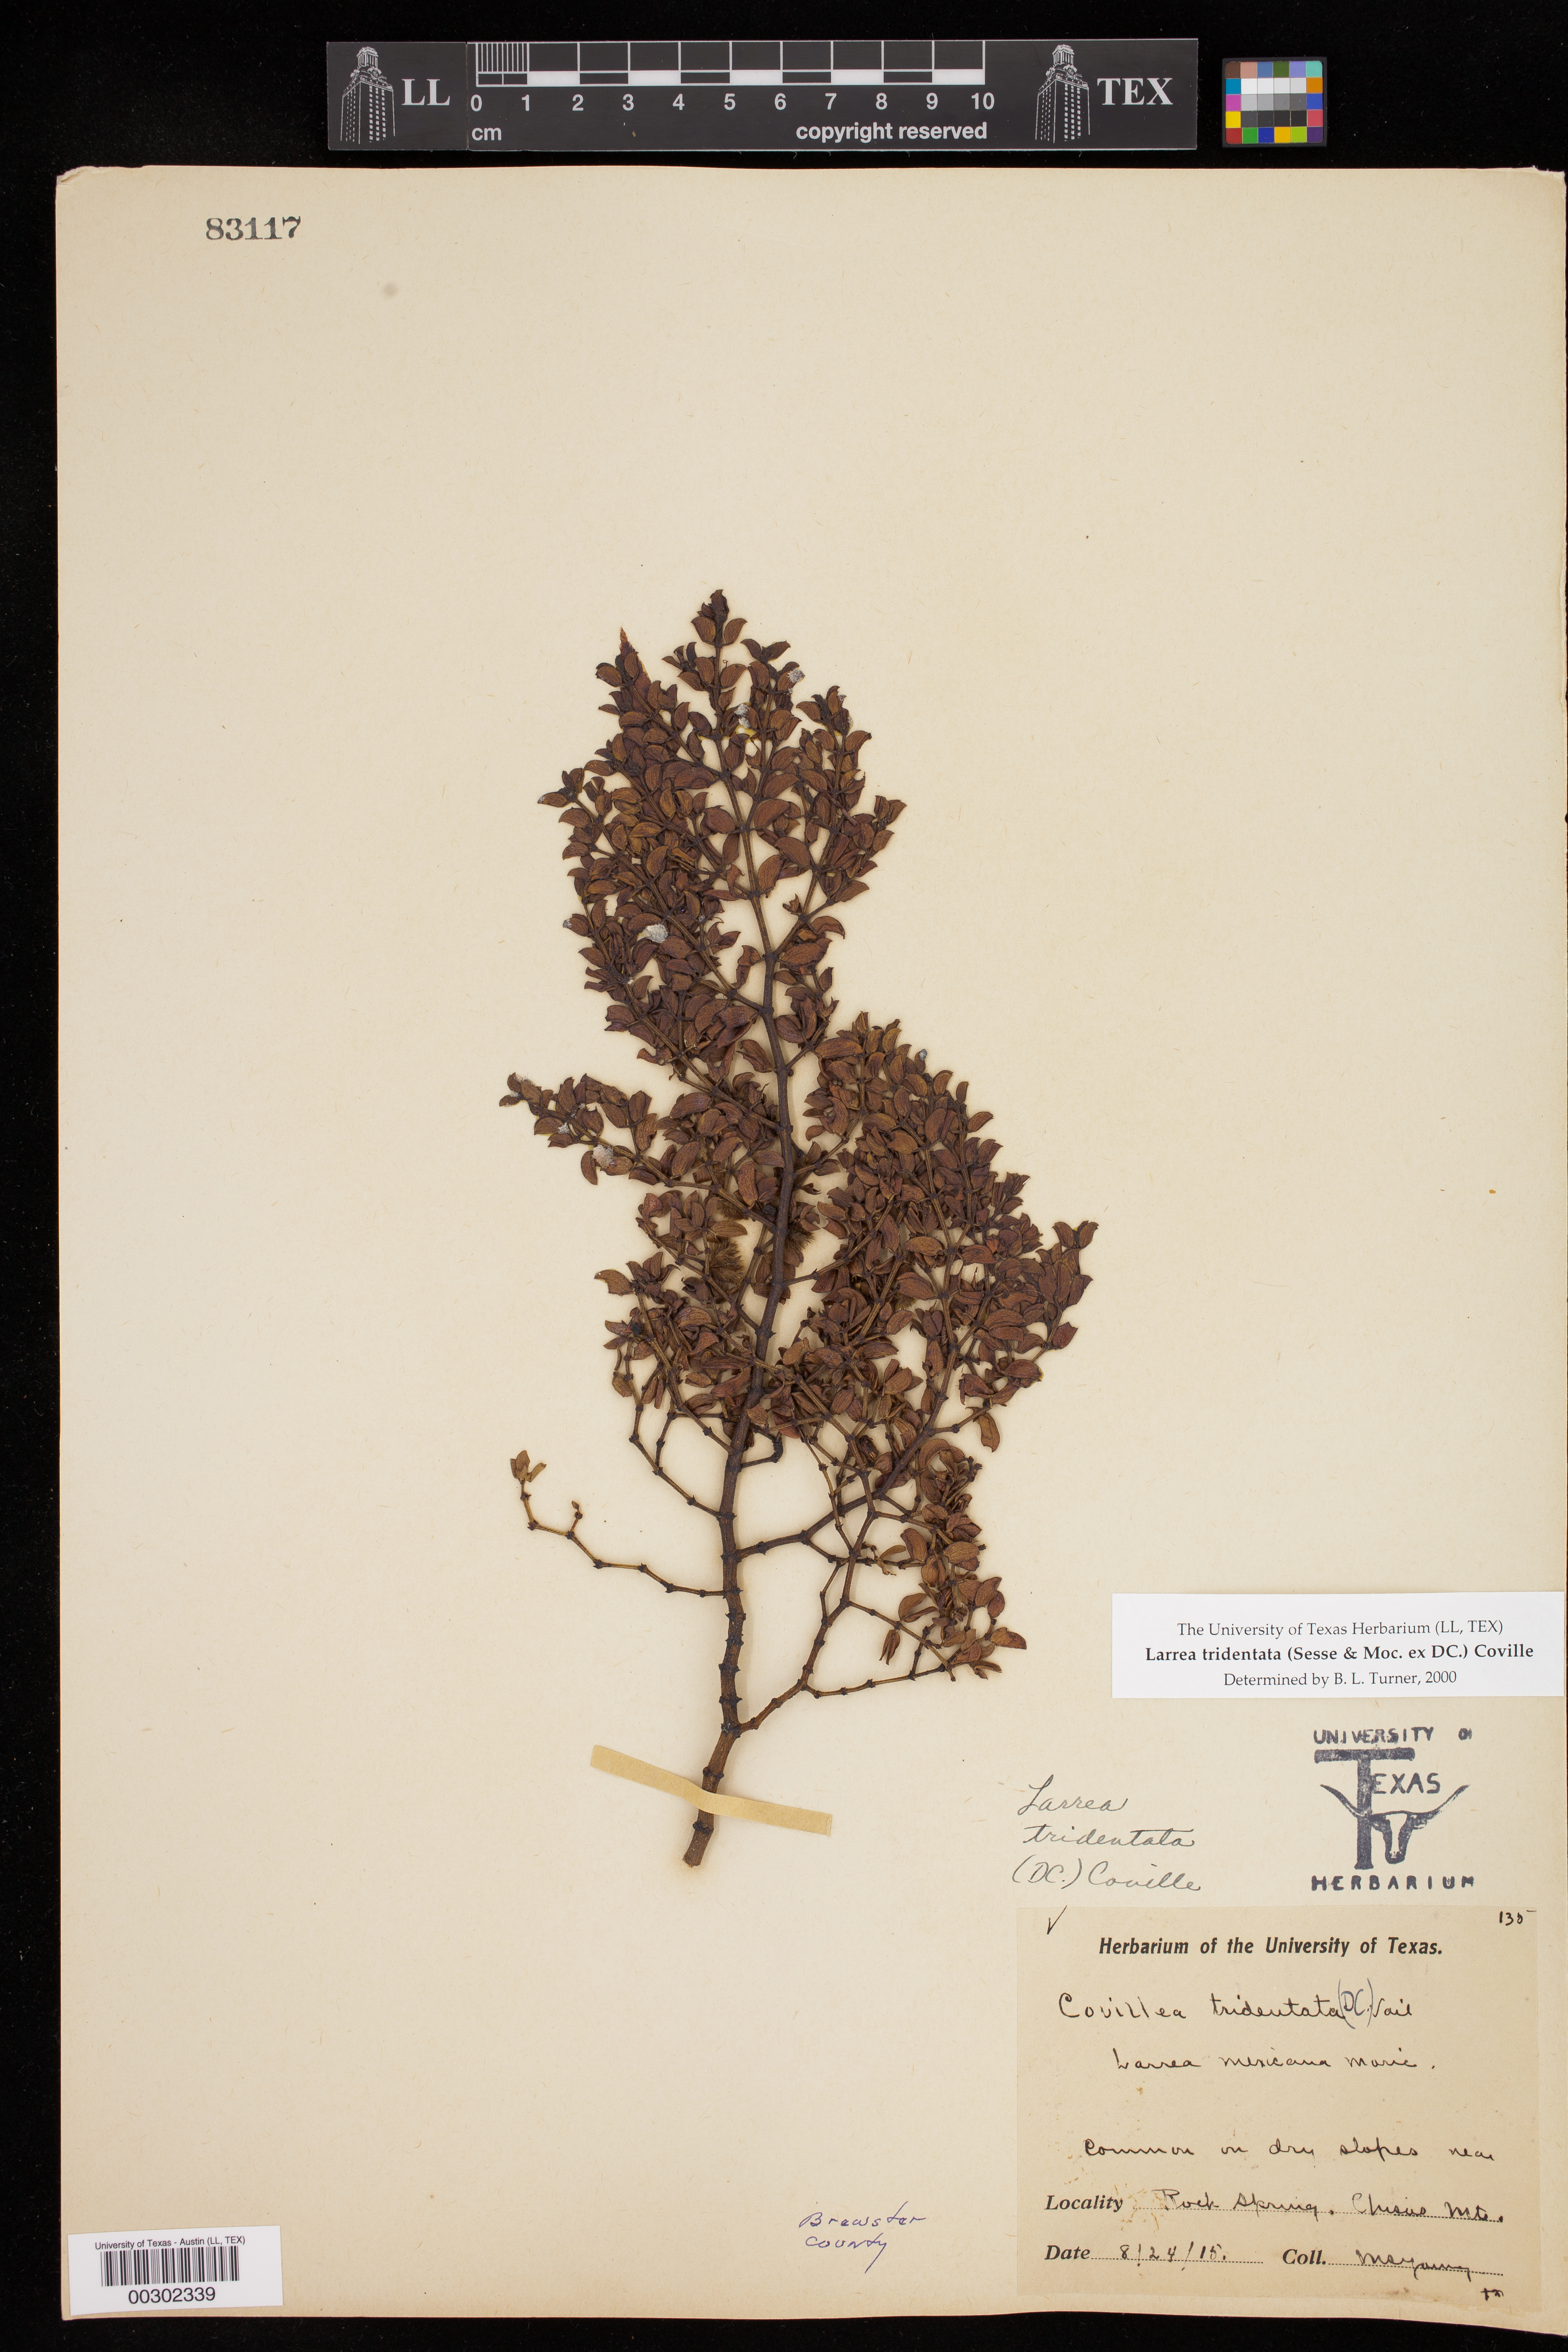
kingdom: Plantae
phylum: Tracheophyta
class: Magnoliopsida
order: Zygophyllales
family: Zygophyllaceae
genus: Larrea
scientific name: Larrea tridentata
